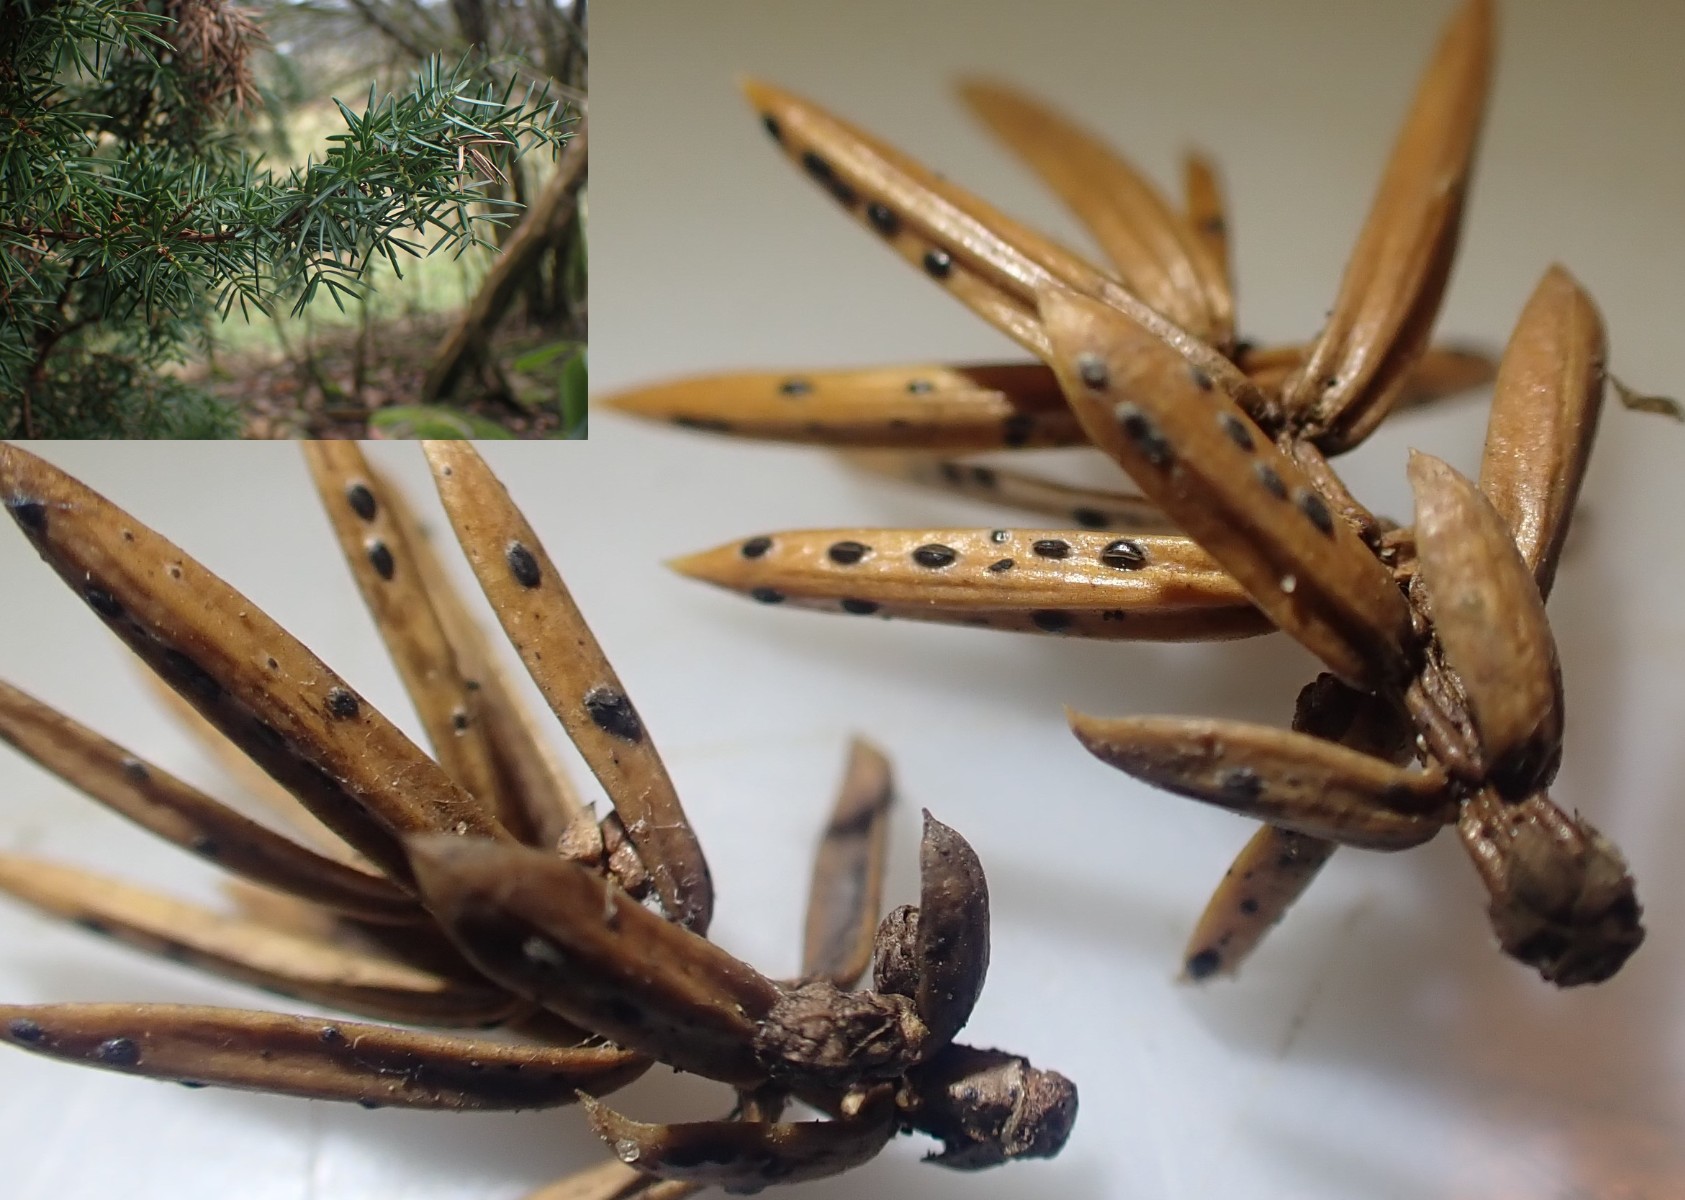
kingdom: Fungi
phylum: Ascomycota
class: Leotiomycetes
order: Rhytismatales
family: Rhytismataceae
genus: Lophodermium
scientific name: Lophodermium juniperinum
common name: ene-fureplet
